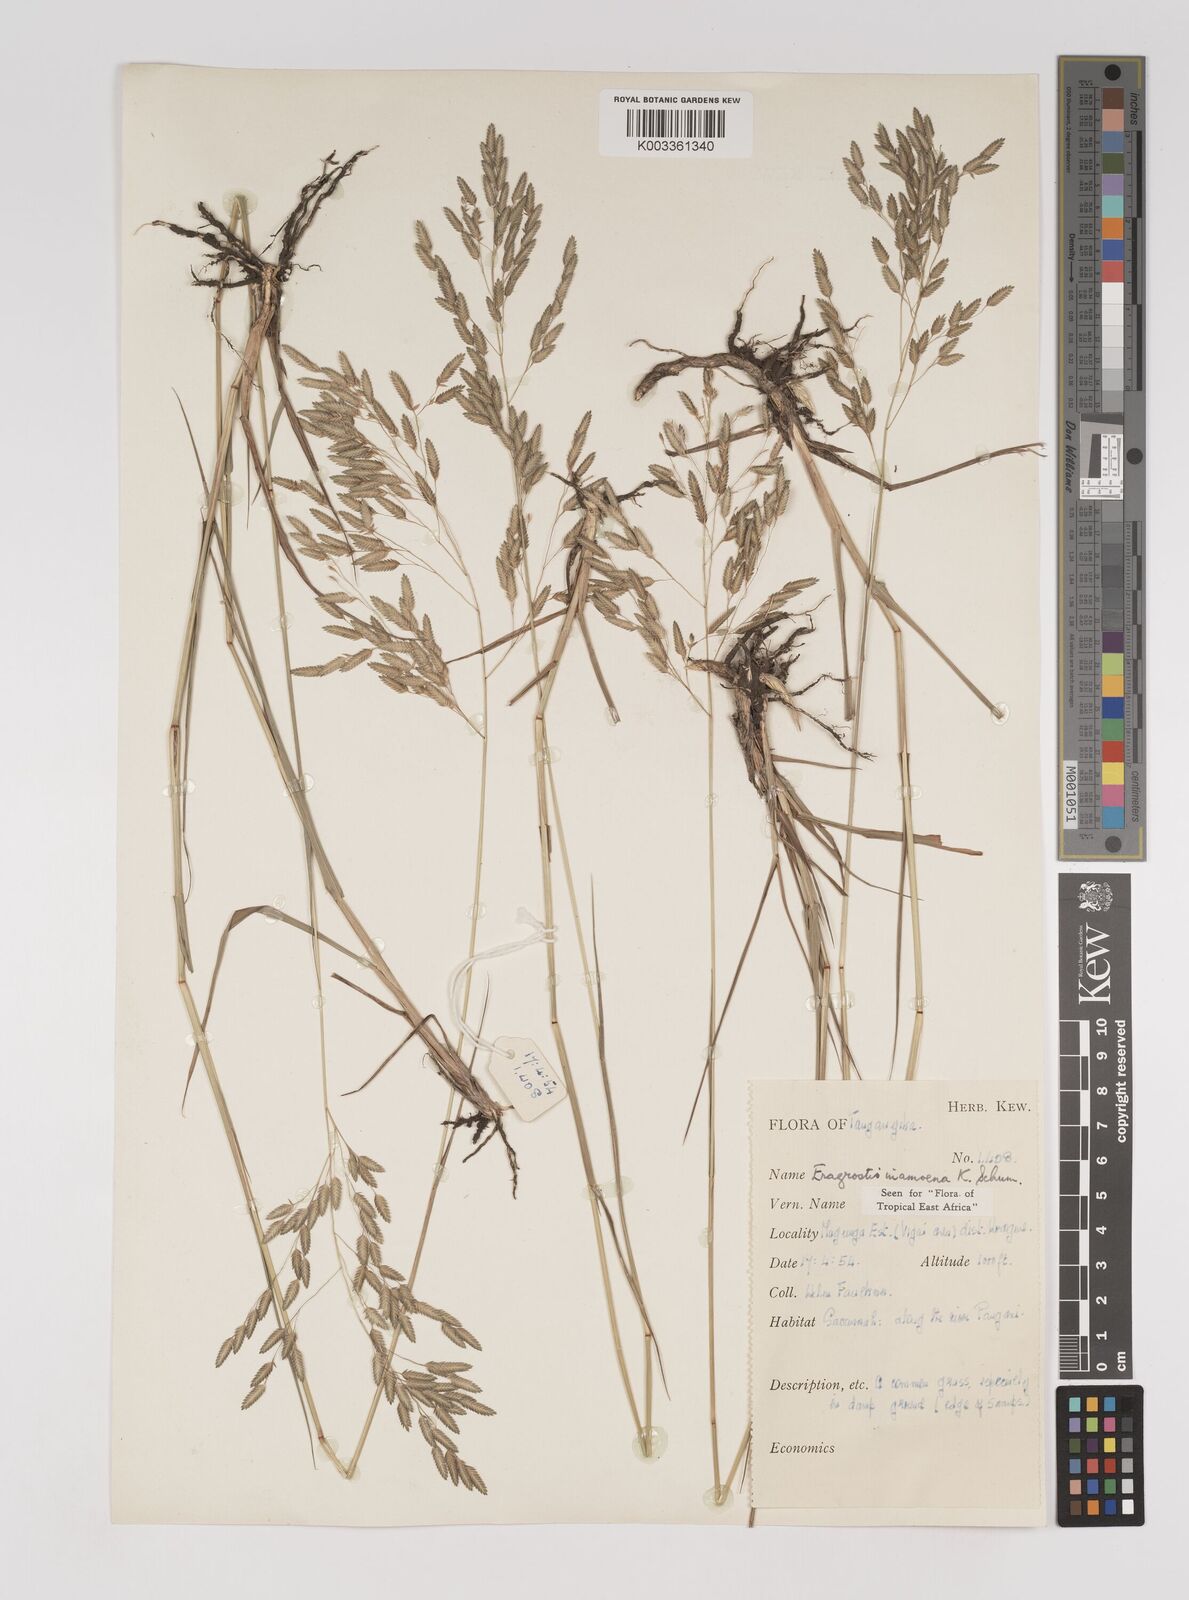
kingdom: Plantae
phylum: Tracheophyta
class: Liliopsida
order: Poales
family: Poaceae
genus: Eragrostis
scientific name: Eragrostis inamoena
